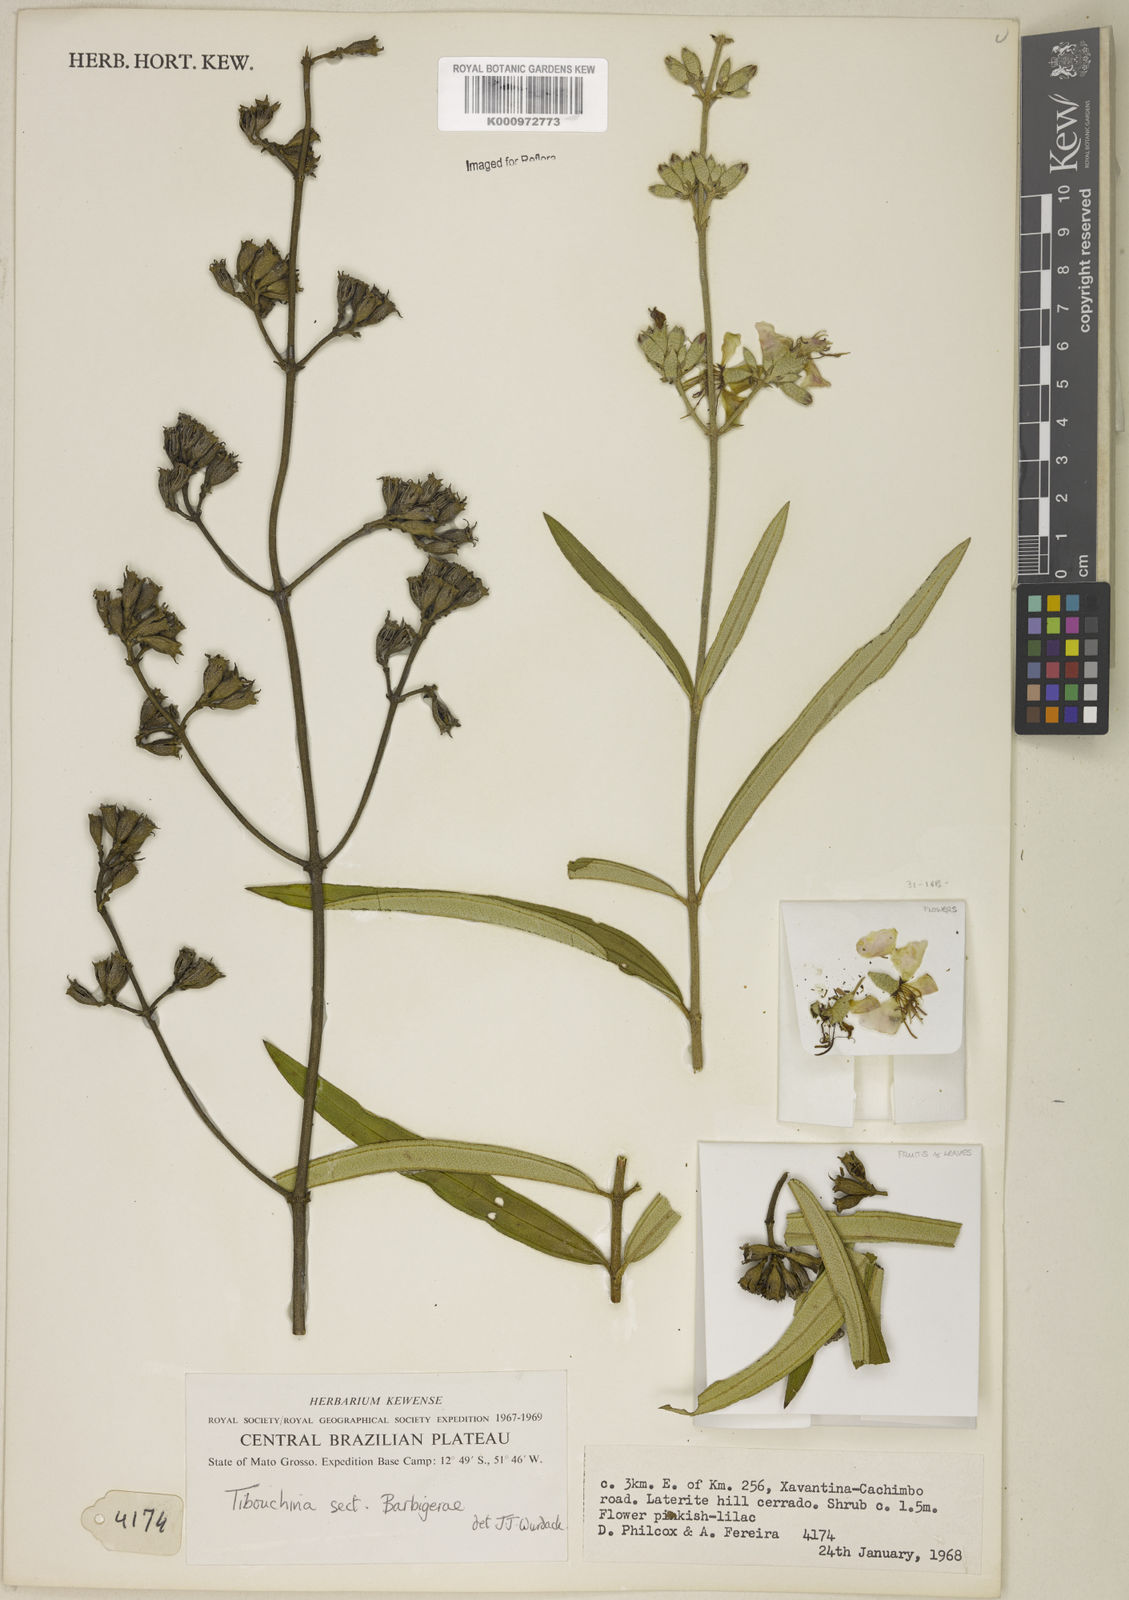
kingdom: Plantae
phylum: Tracheophyta
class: Magnoliopsida
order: Myrtales
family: Melastomataceae
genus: Pleroma
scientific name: Pleroma barbigerum
